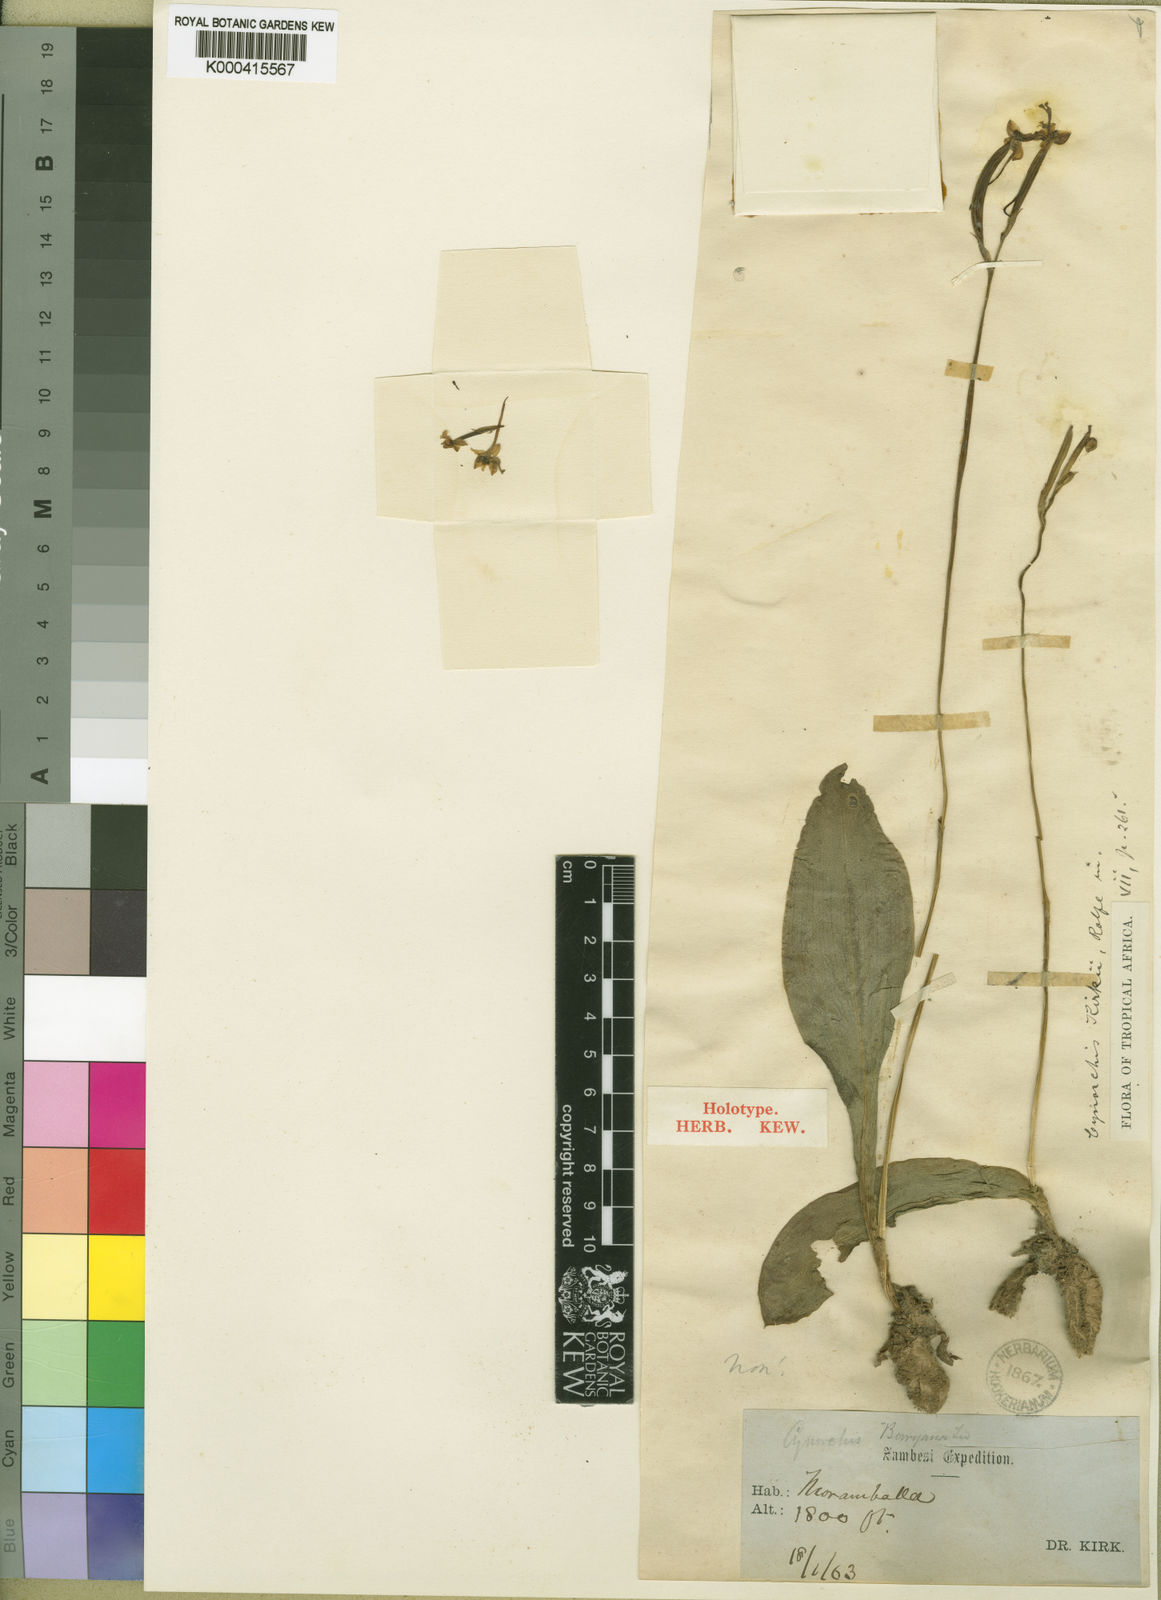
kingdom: Plantae
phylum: Tracheophyta
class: Liliopsida
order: Asparagales
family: Orchidaceae
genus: Cynorkis
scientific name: Cynorkis kirkii
